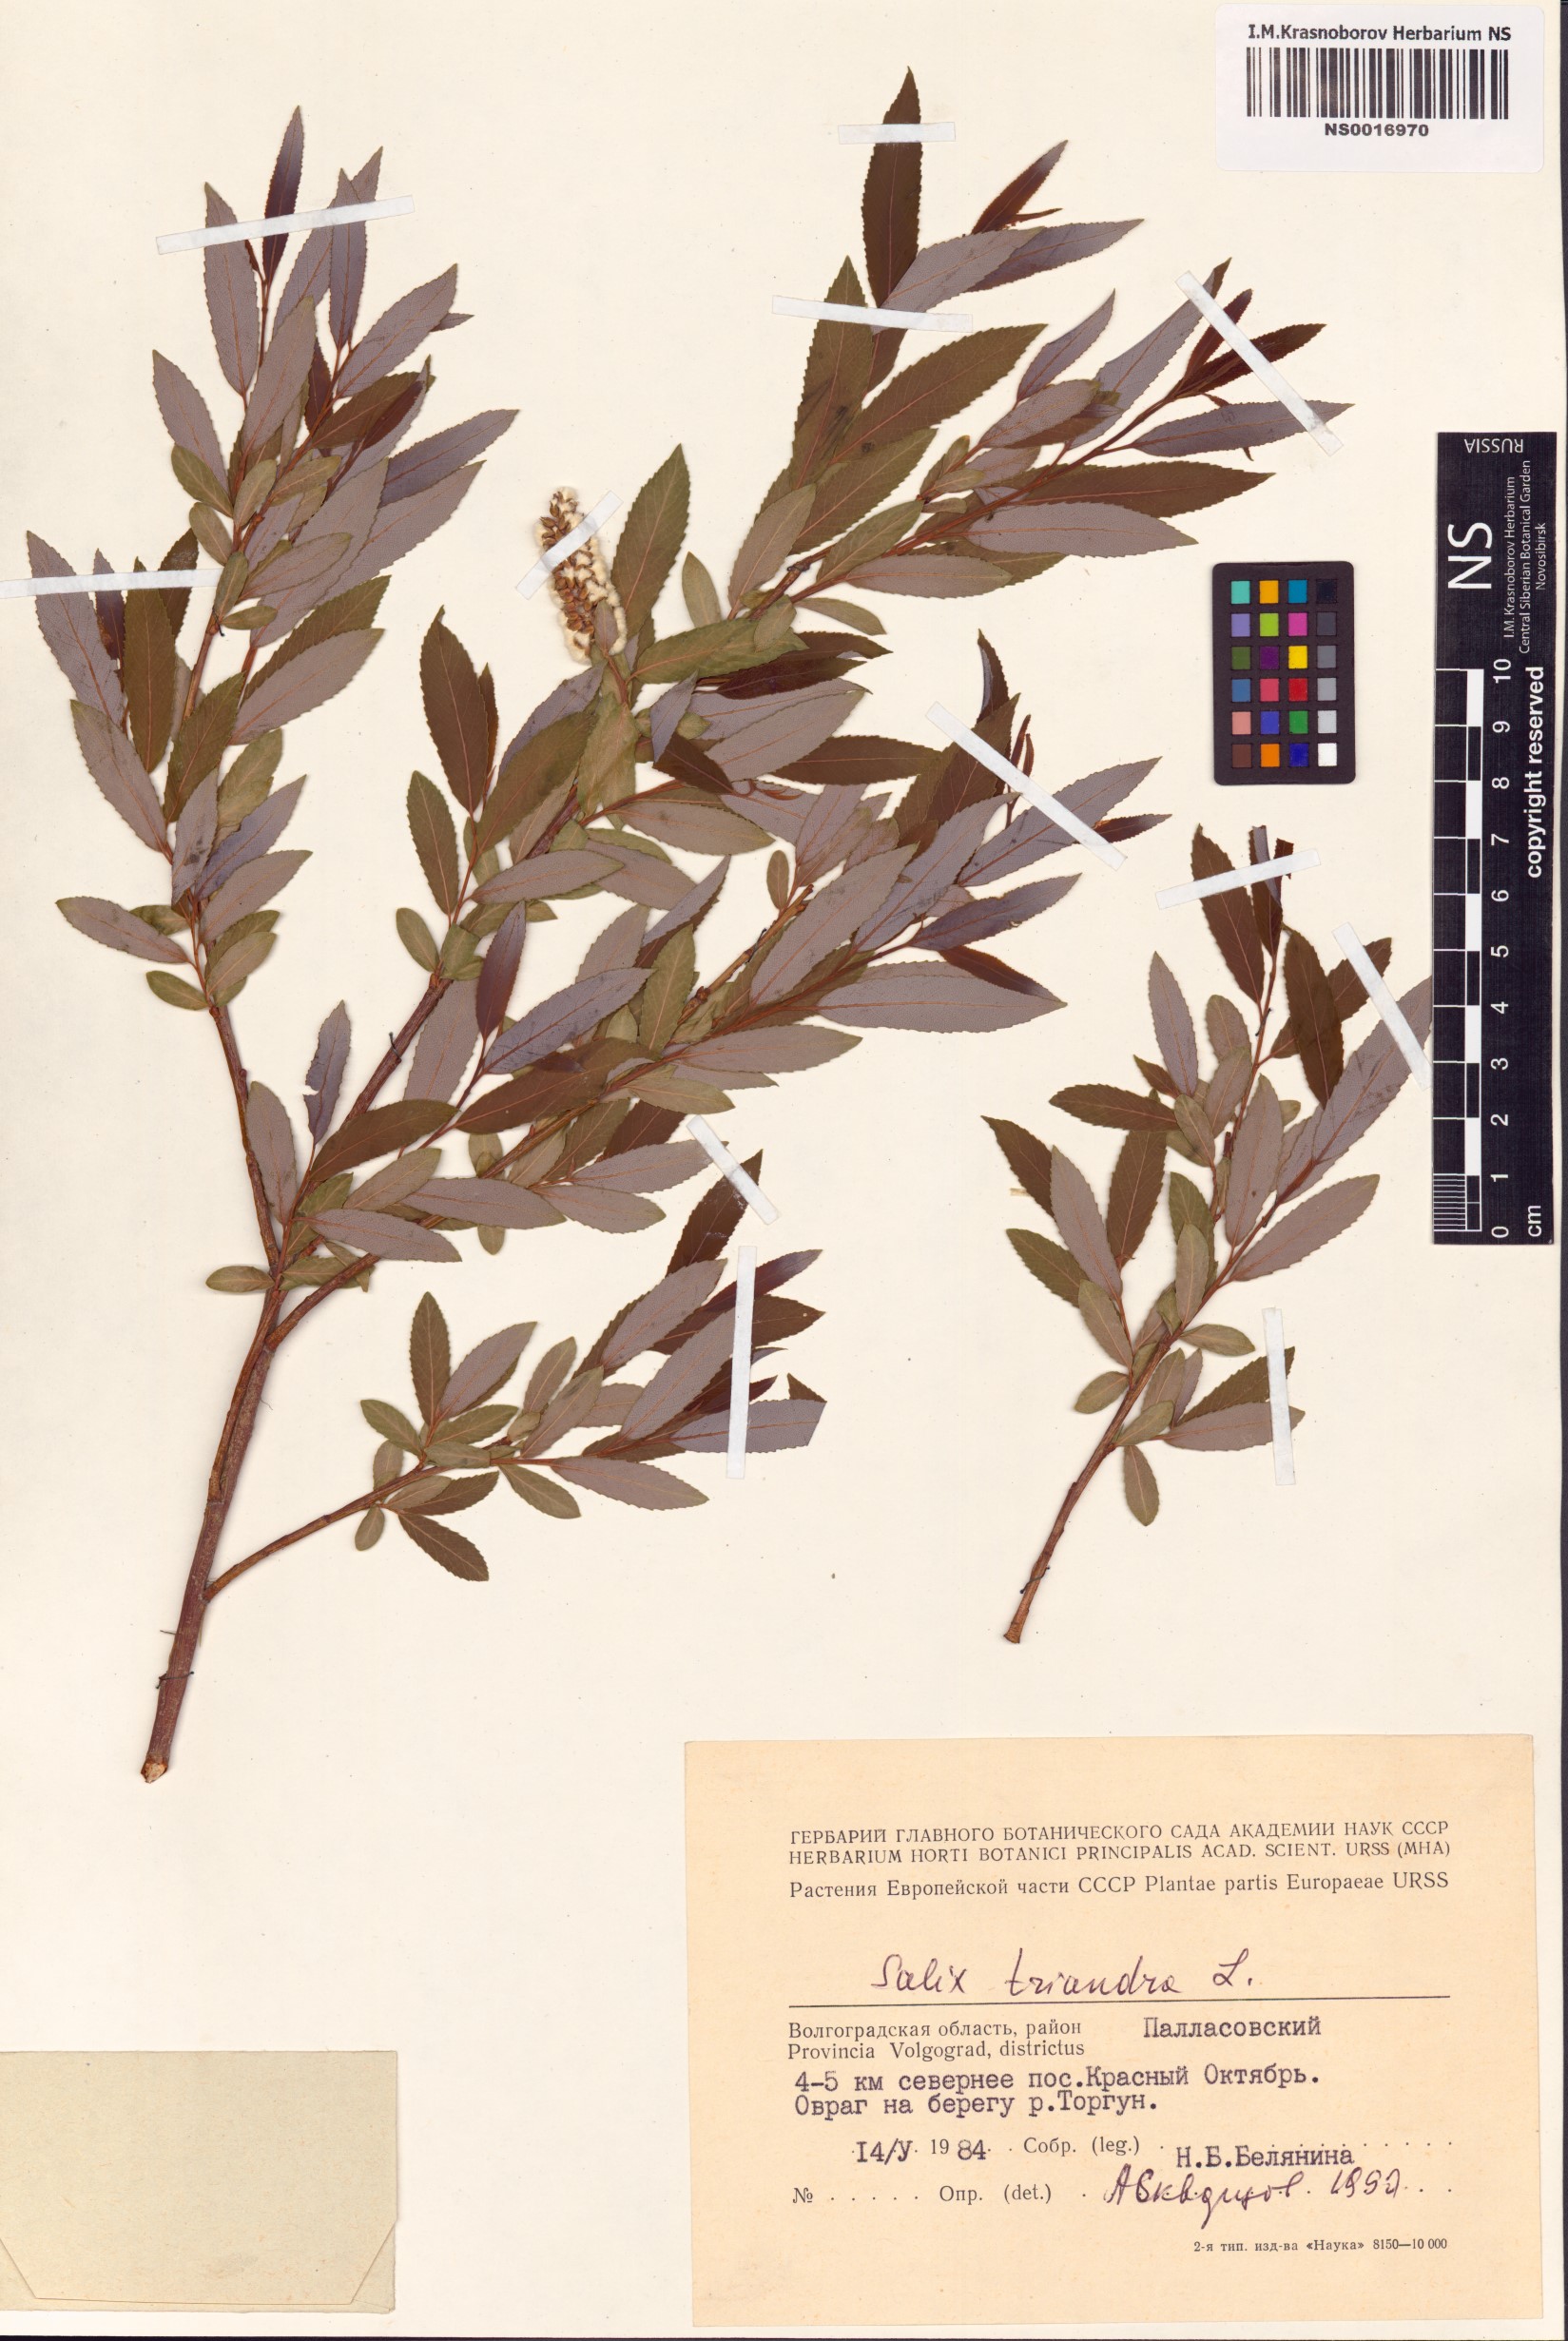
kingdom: Plantae
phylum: Tracheophyta
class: Magnoliopsida
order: Malpighiales
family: Salicaceae
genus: Salix
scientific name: Salix triandra
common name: Almond willow
